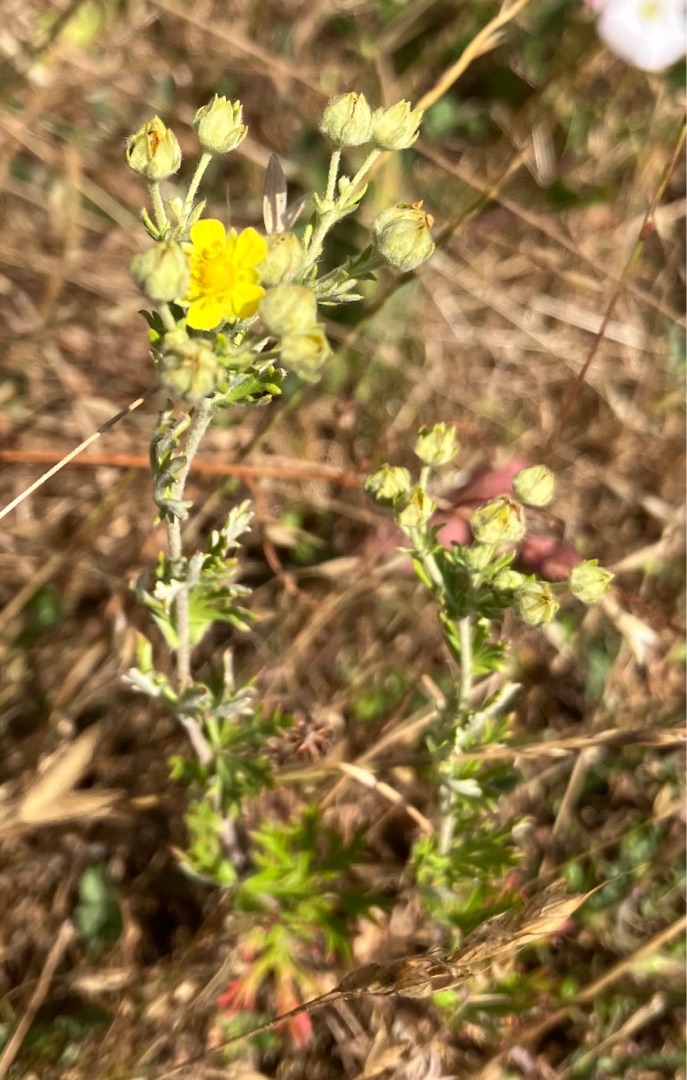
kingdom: Plantae
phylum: Tracheophyta
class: Magnoliopsida
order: Rosales
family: Rosaceae
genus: Potentilla
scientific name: Potentilla argentea
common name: Sølv-potentil
